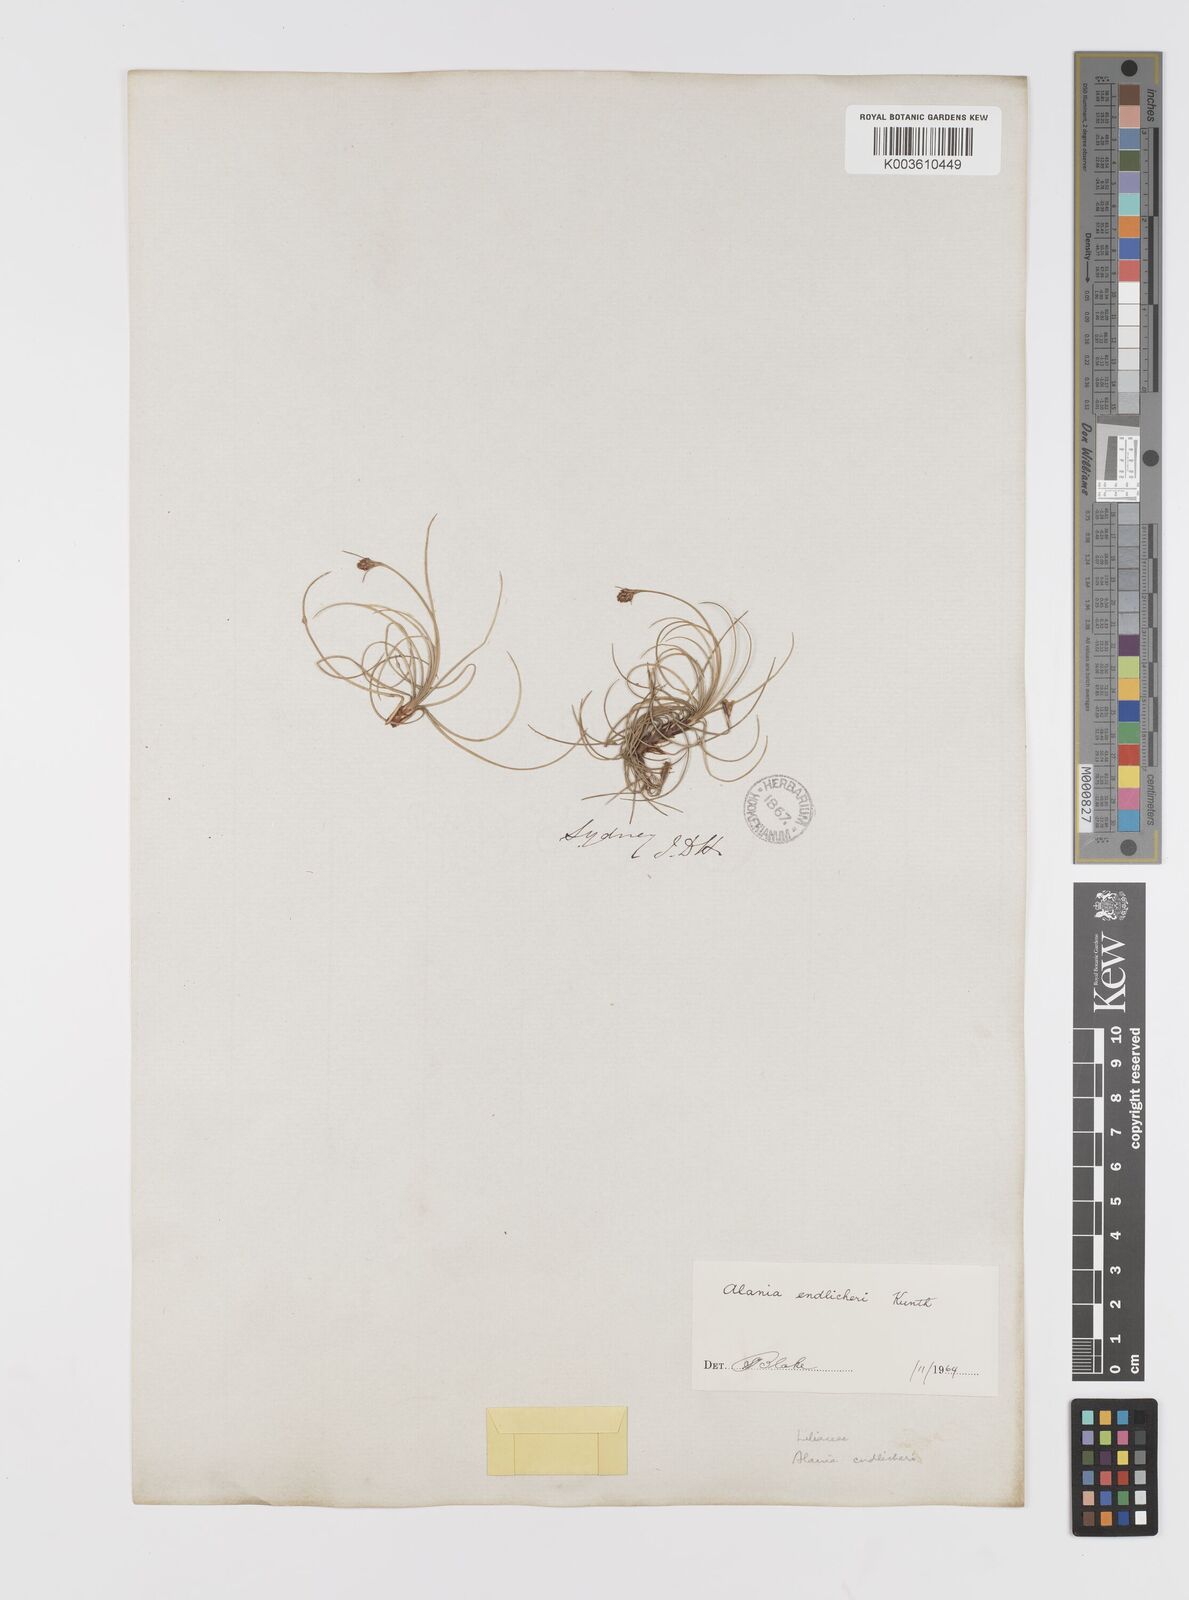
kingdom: Plantae
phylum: Tracheophyta
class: Liliopsida
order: Asparagales
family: Boryaceae
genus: Alania
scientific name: Alania cunninghamii
